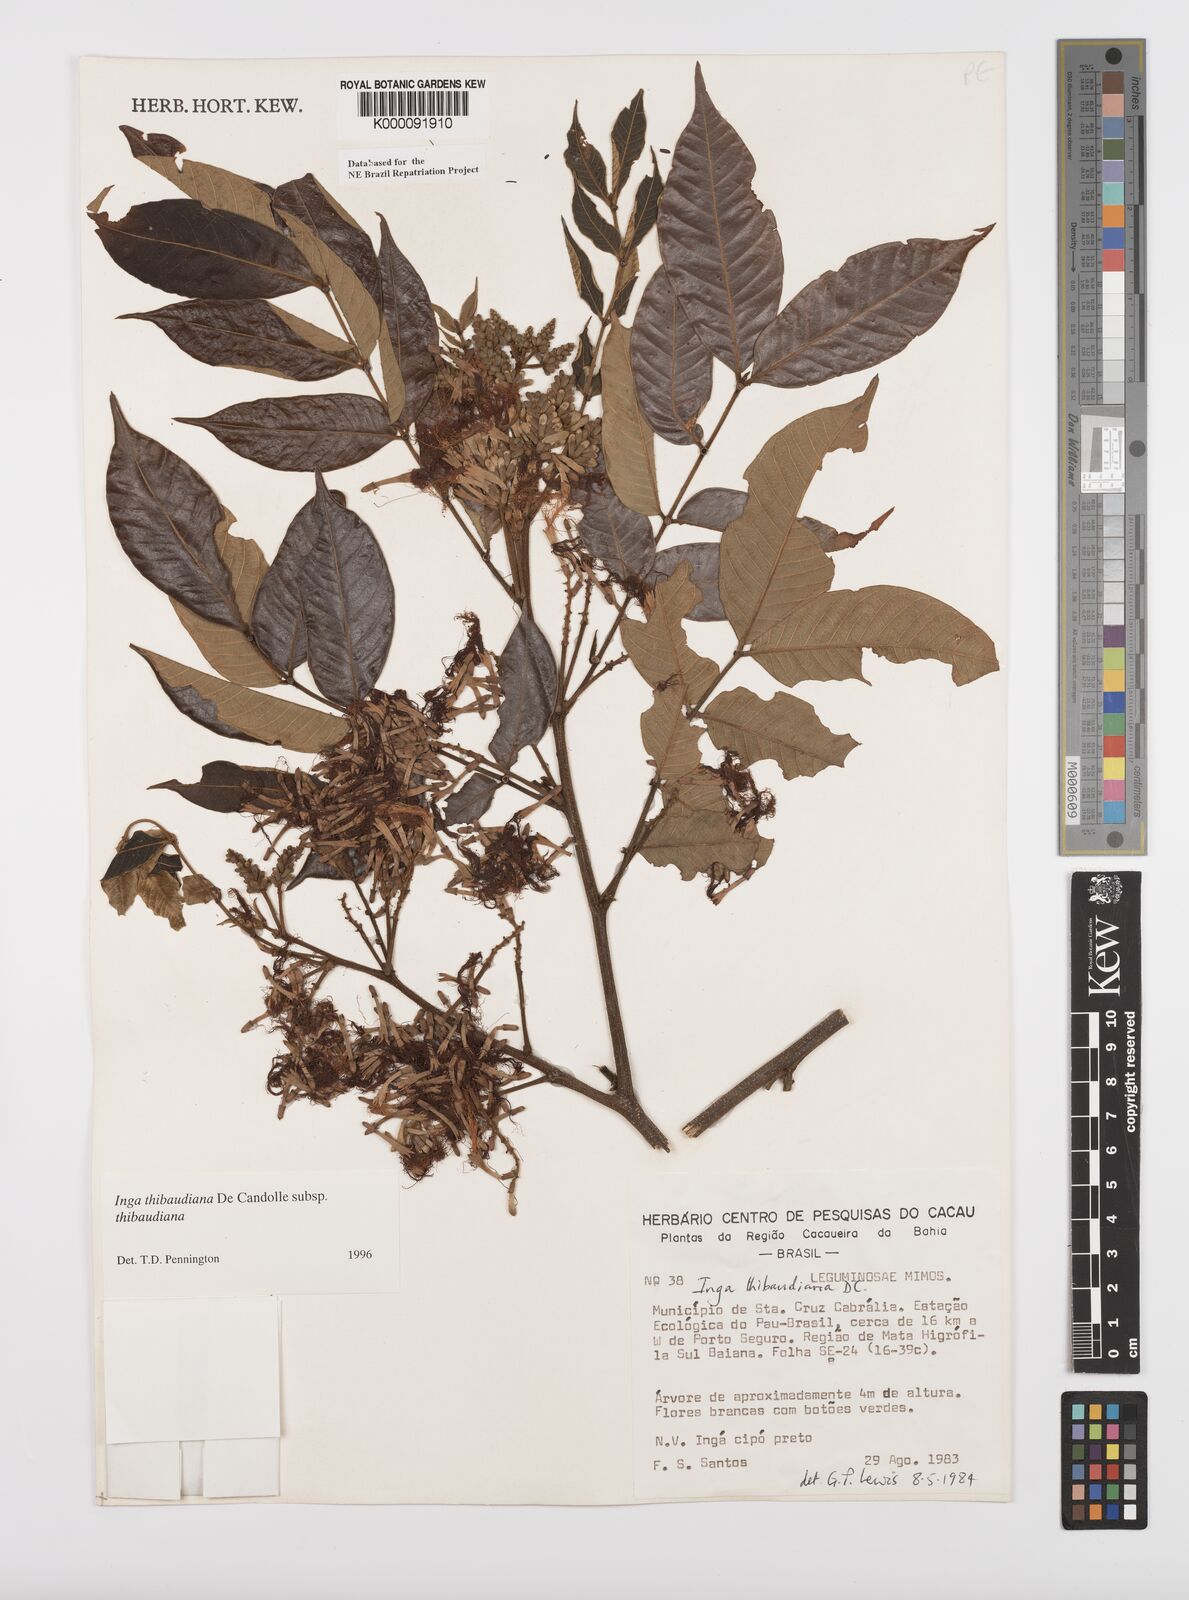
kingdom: Plantae
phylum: Tracheophyta
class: Magnoliopsida
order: Fabales
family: Fabaceae
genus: Inga
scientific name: Inga thibaudiana
